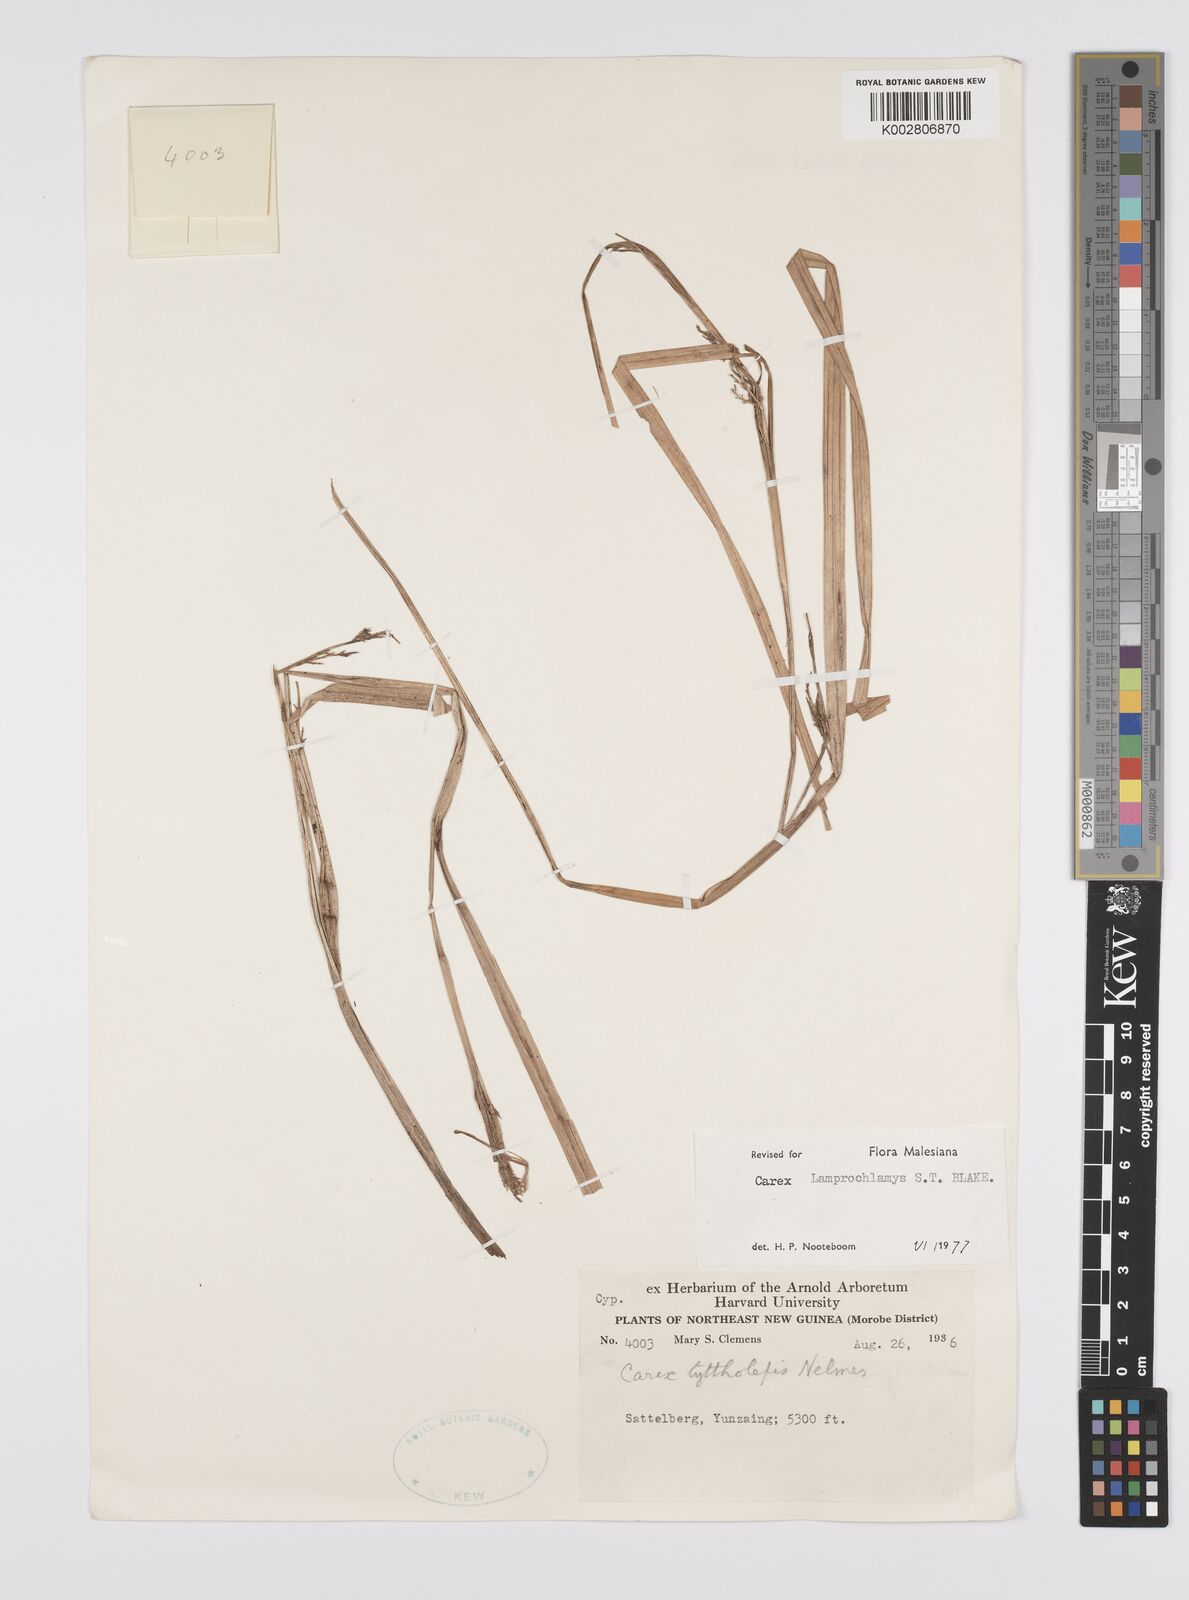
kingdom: Plantae
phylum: Tracheophyta
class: Liliopsida
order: Poales
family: Cyperaceae
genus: Carex
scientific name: Carex lamprochlamys
